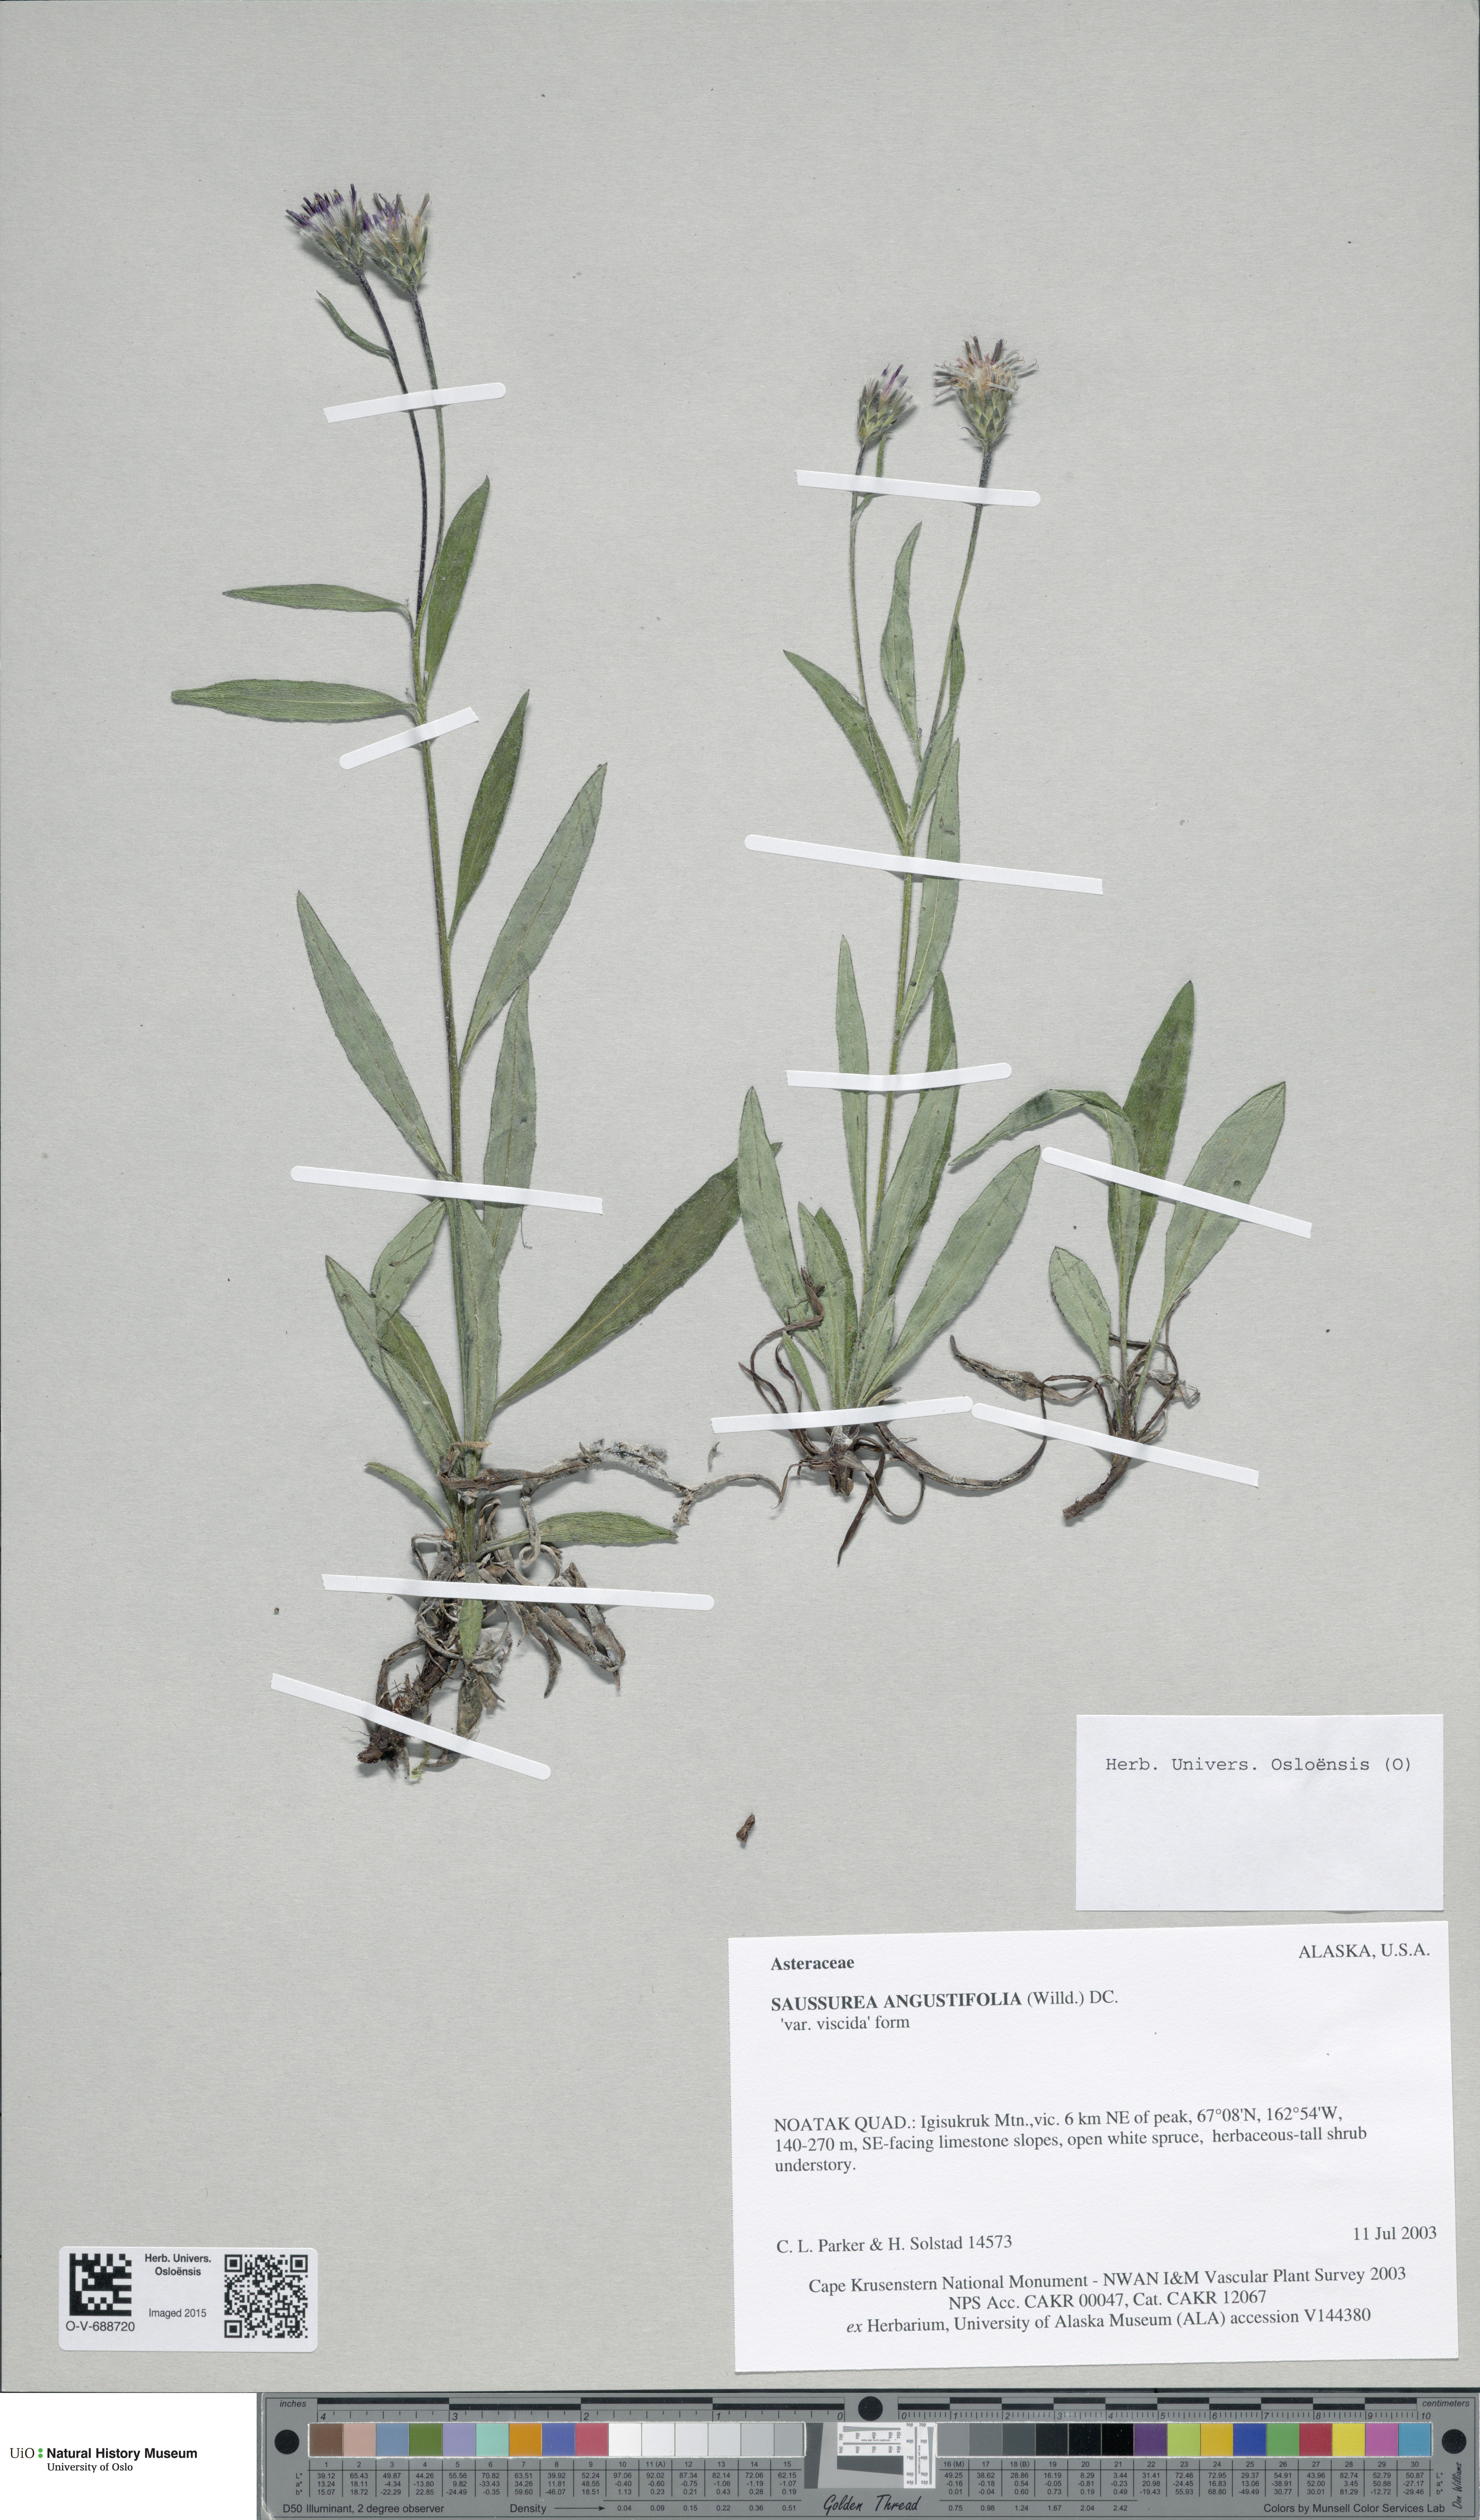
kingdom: Plantae
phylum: Tracheophyta
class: Magnoliopsida
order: Asterales
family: Asteraceae
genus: Saussurea
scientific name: Saussurea angustifolia
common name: Common saussurea
